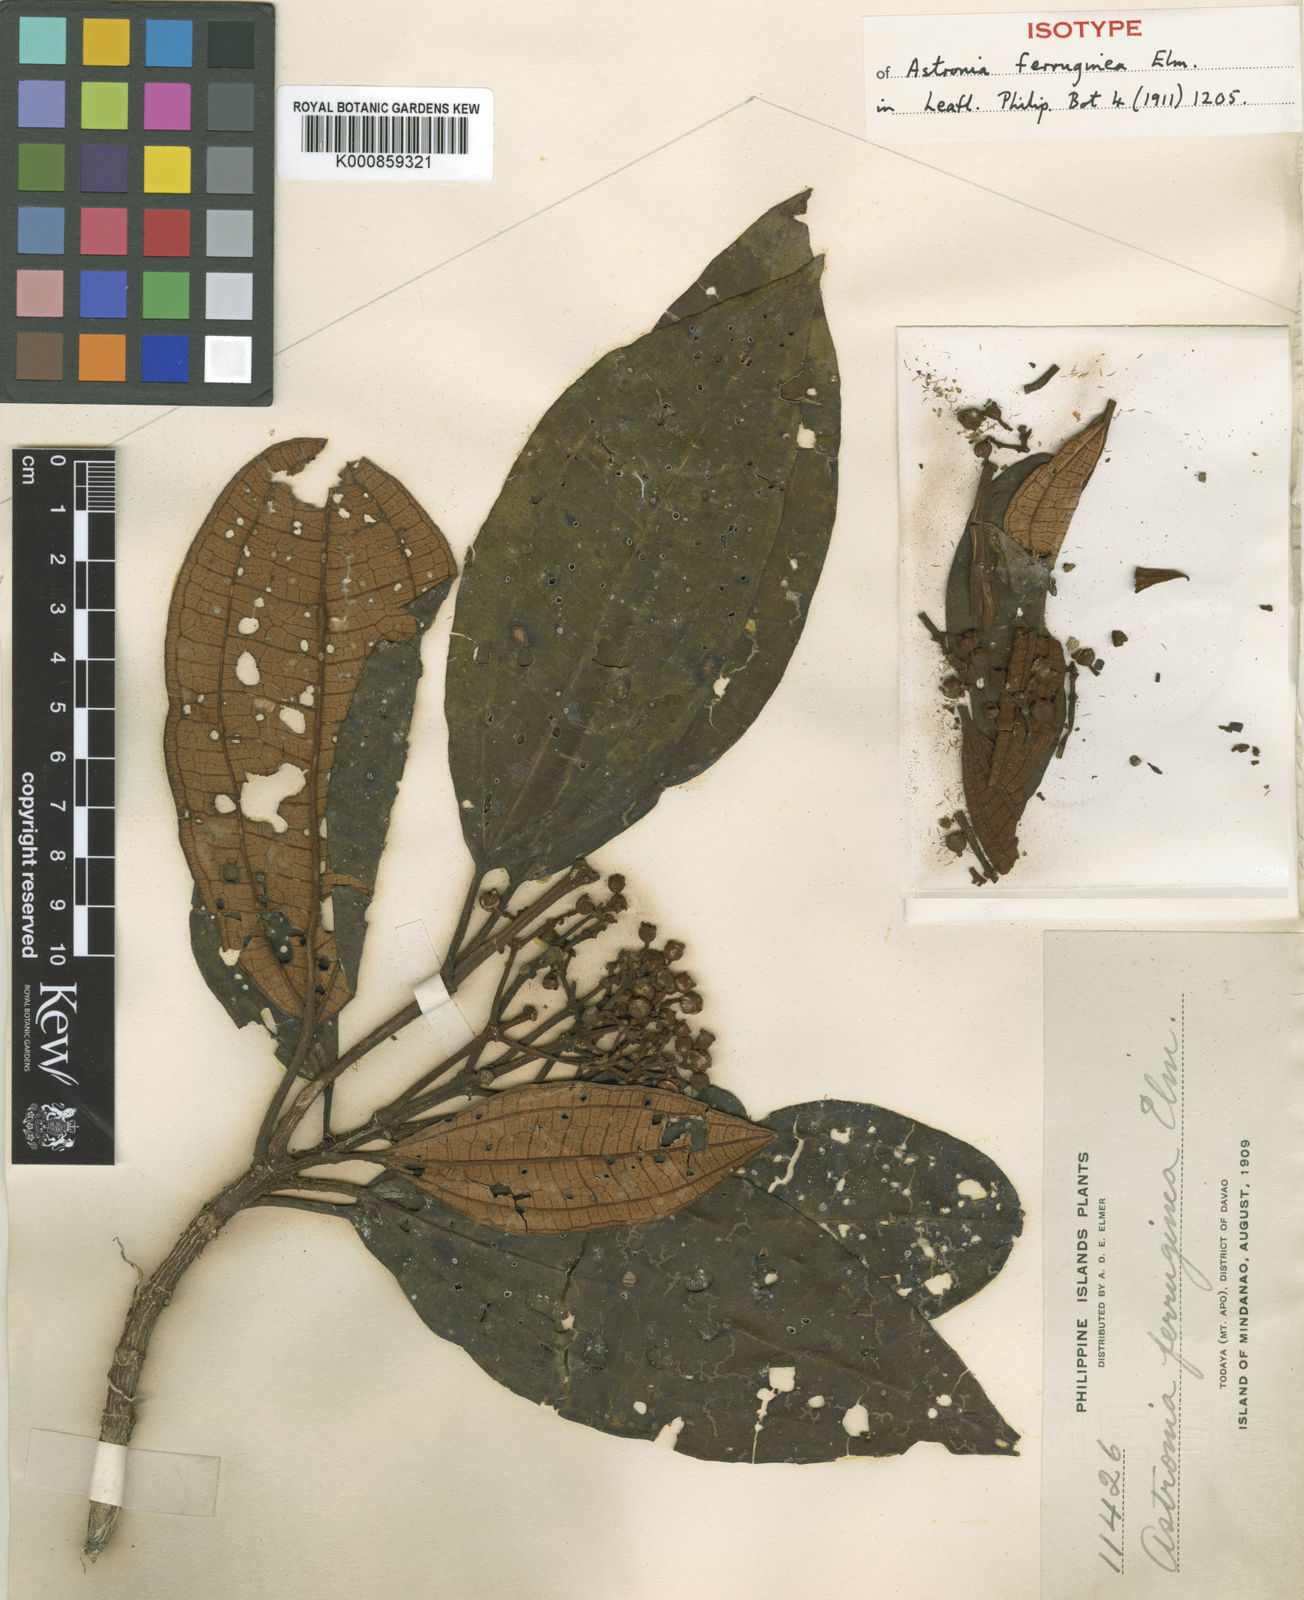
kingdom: Plantae
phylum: Tracheophyta
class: Magnoliopsida
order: Myrtales
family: Melastomataceae
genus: Astronia
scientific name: Astronia ferruginea
